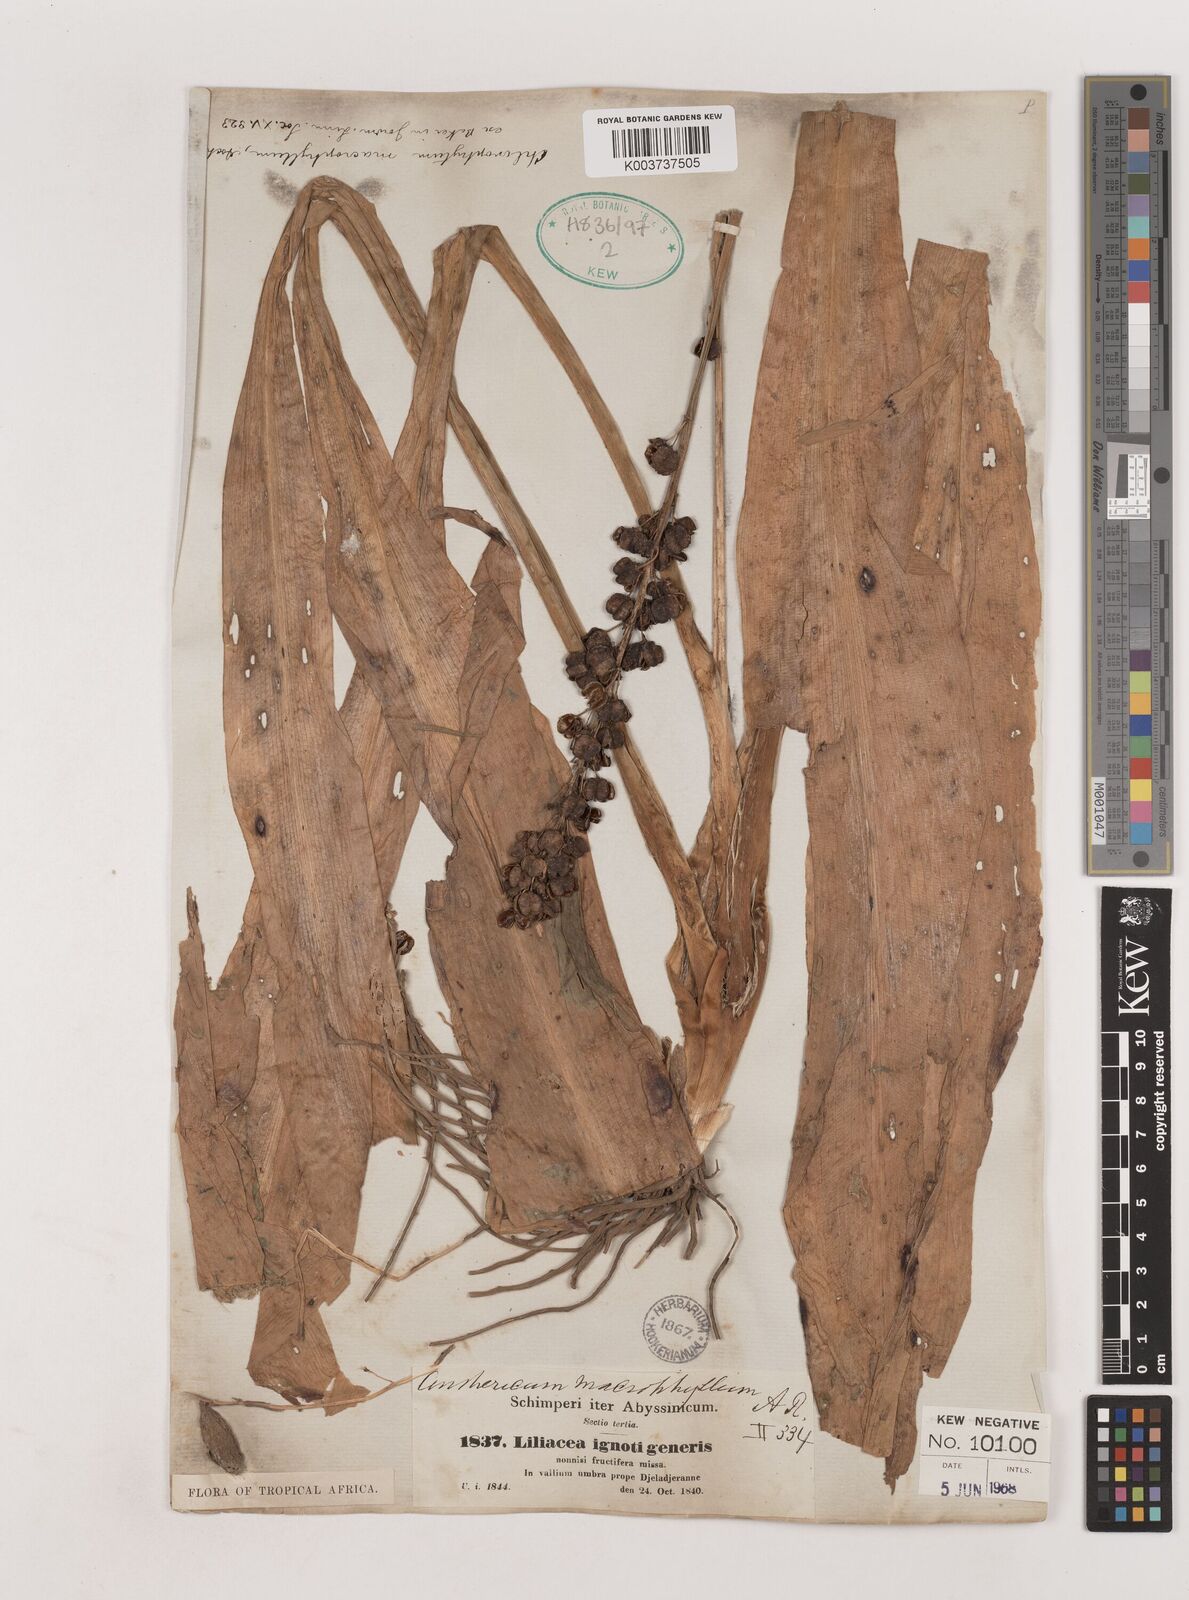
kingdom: Plantae
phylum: Tracheophyta
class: Liliopsida
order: Asparagales
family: Asparagaceae
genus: Chlorophytum
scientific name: Chlorophytum macrophyllum
